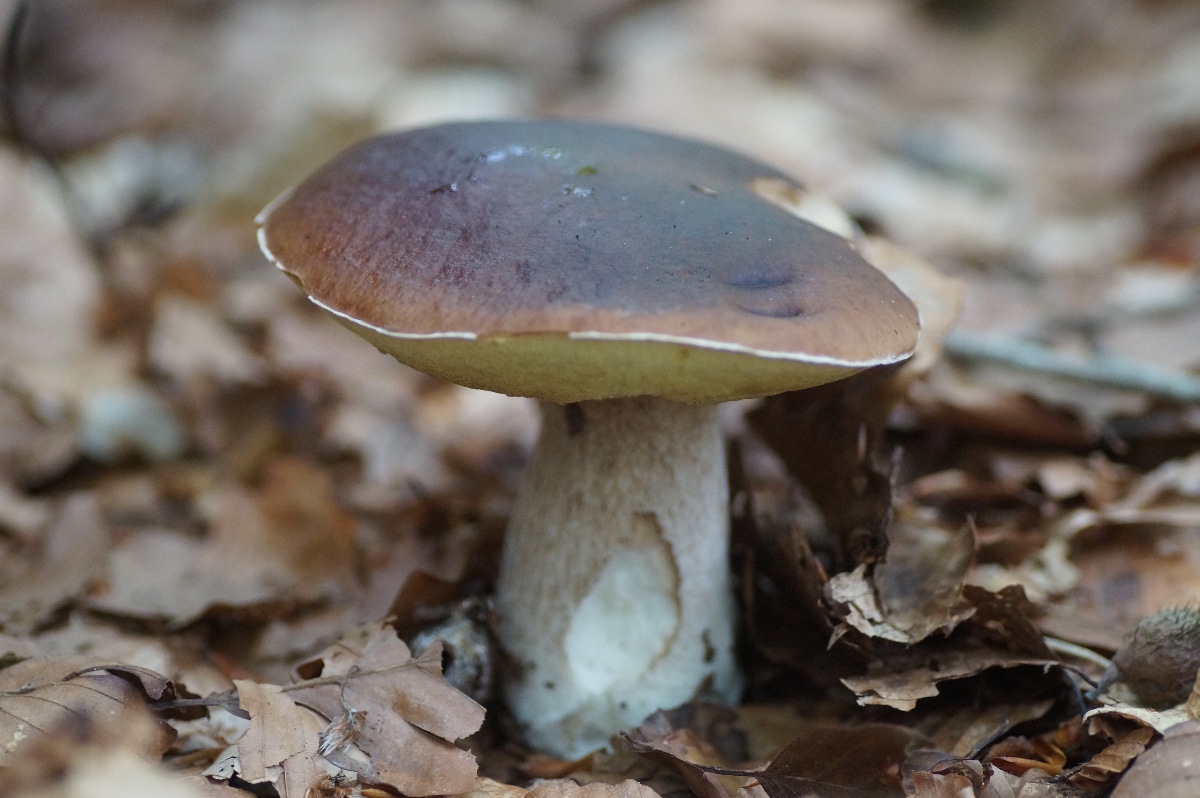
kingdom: Fungi
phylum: Basidiomycota
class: Agaricomycetes
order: Boletales
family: Boletaceae
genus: Boletus
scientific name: Boletus edulis
